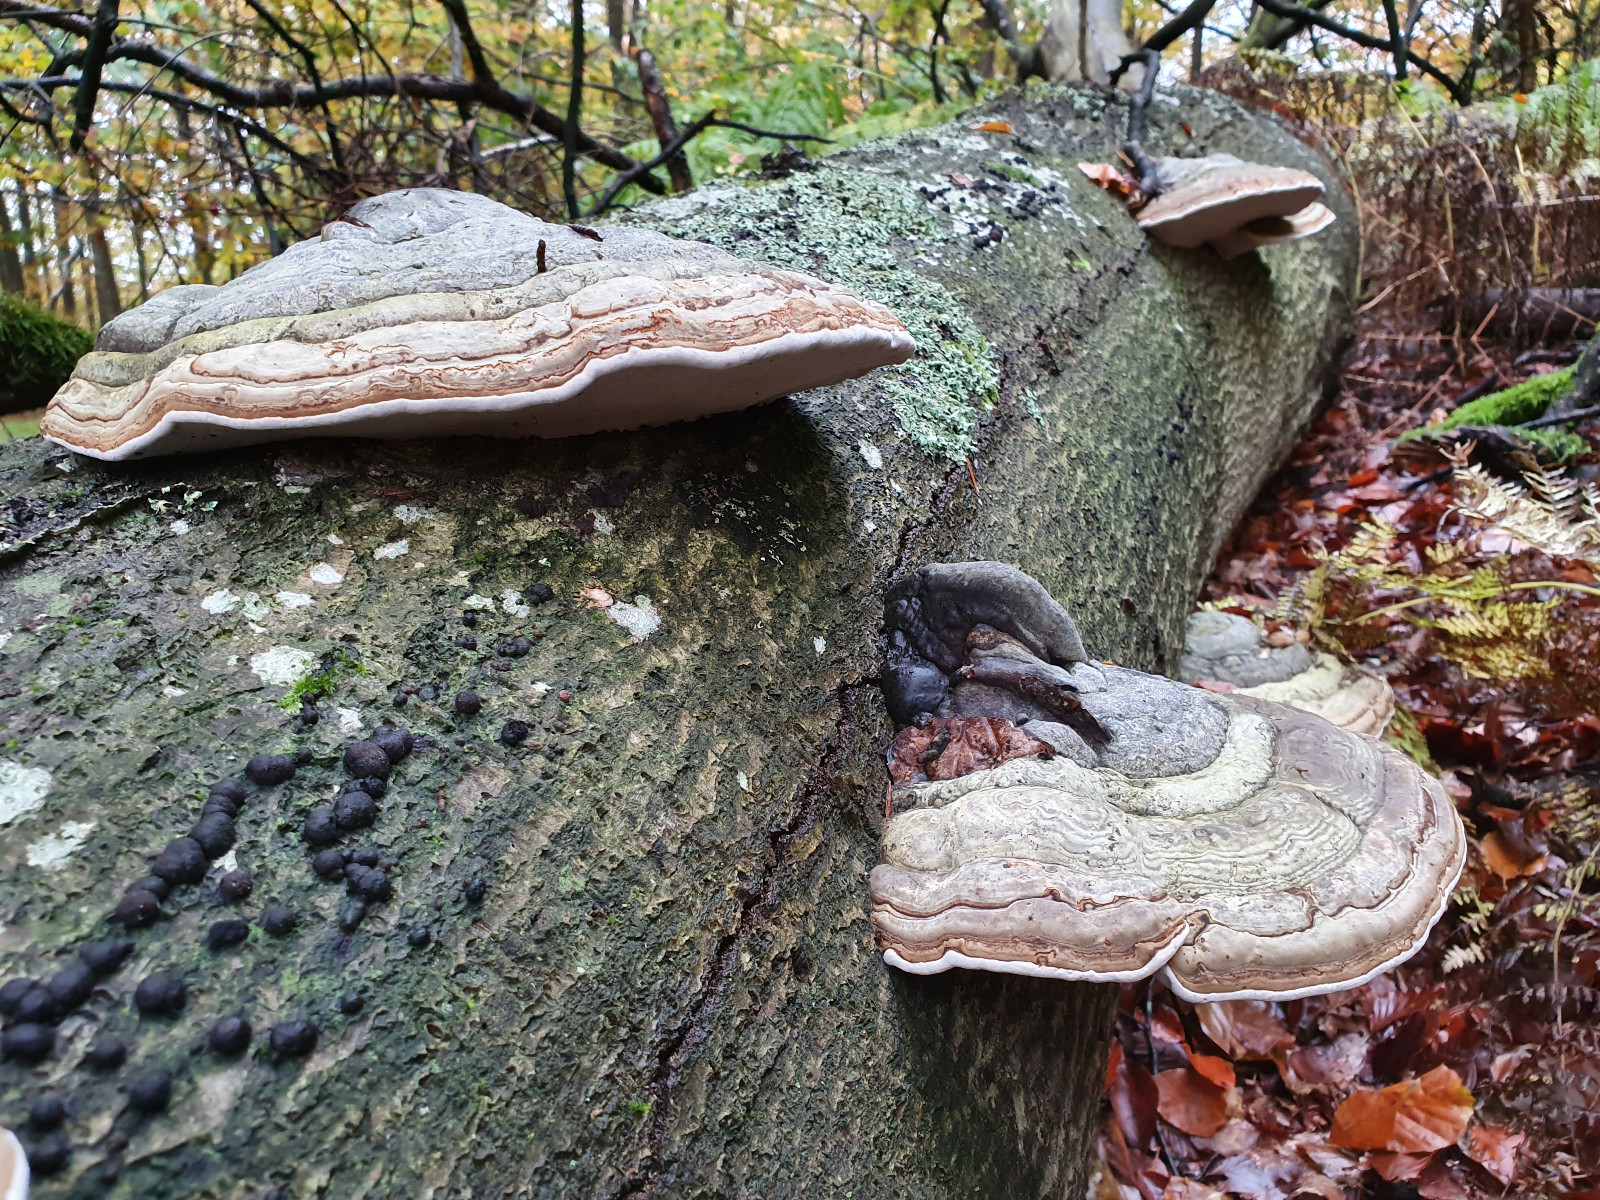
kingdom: Fungi
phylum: Basidiomycota
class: Agaricomycetes
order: Polyporales
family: Polyporaceae
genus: Fomes
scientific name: Fomes fomentarius
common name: tøndersvamp
